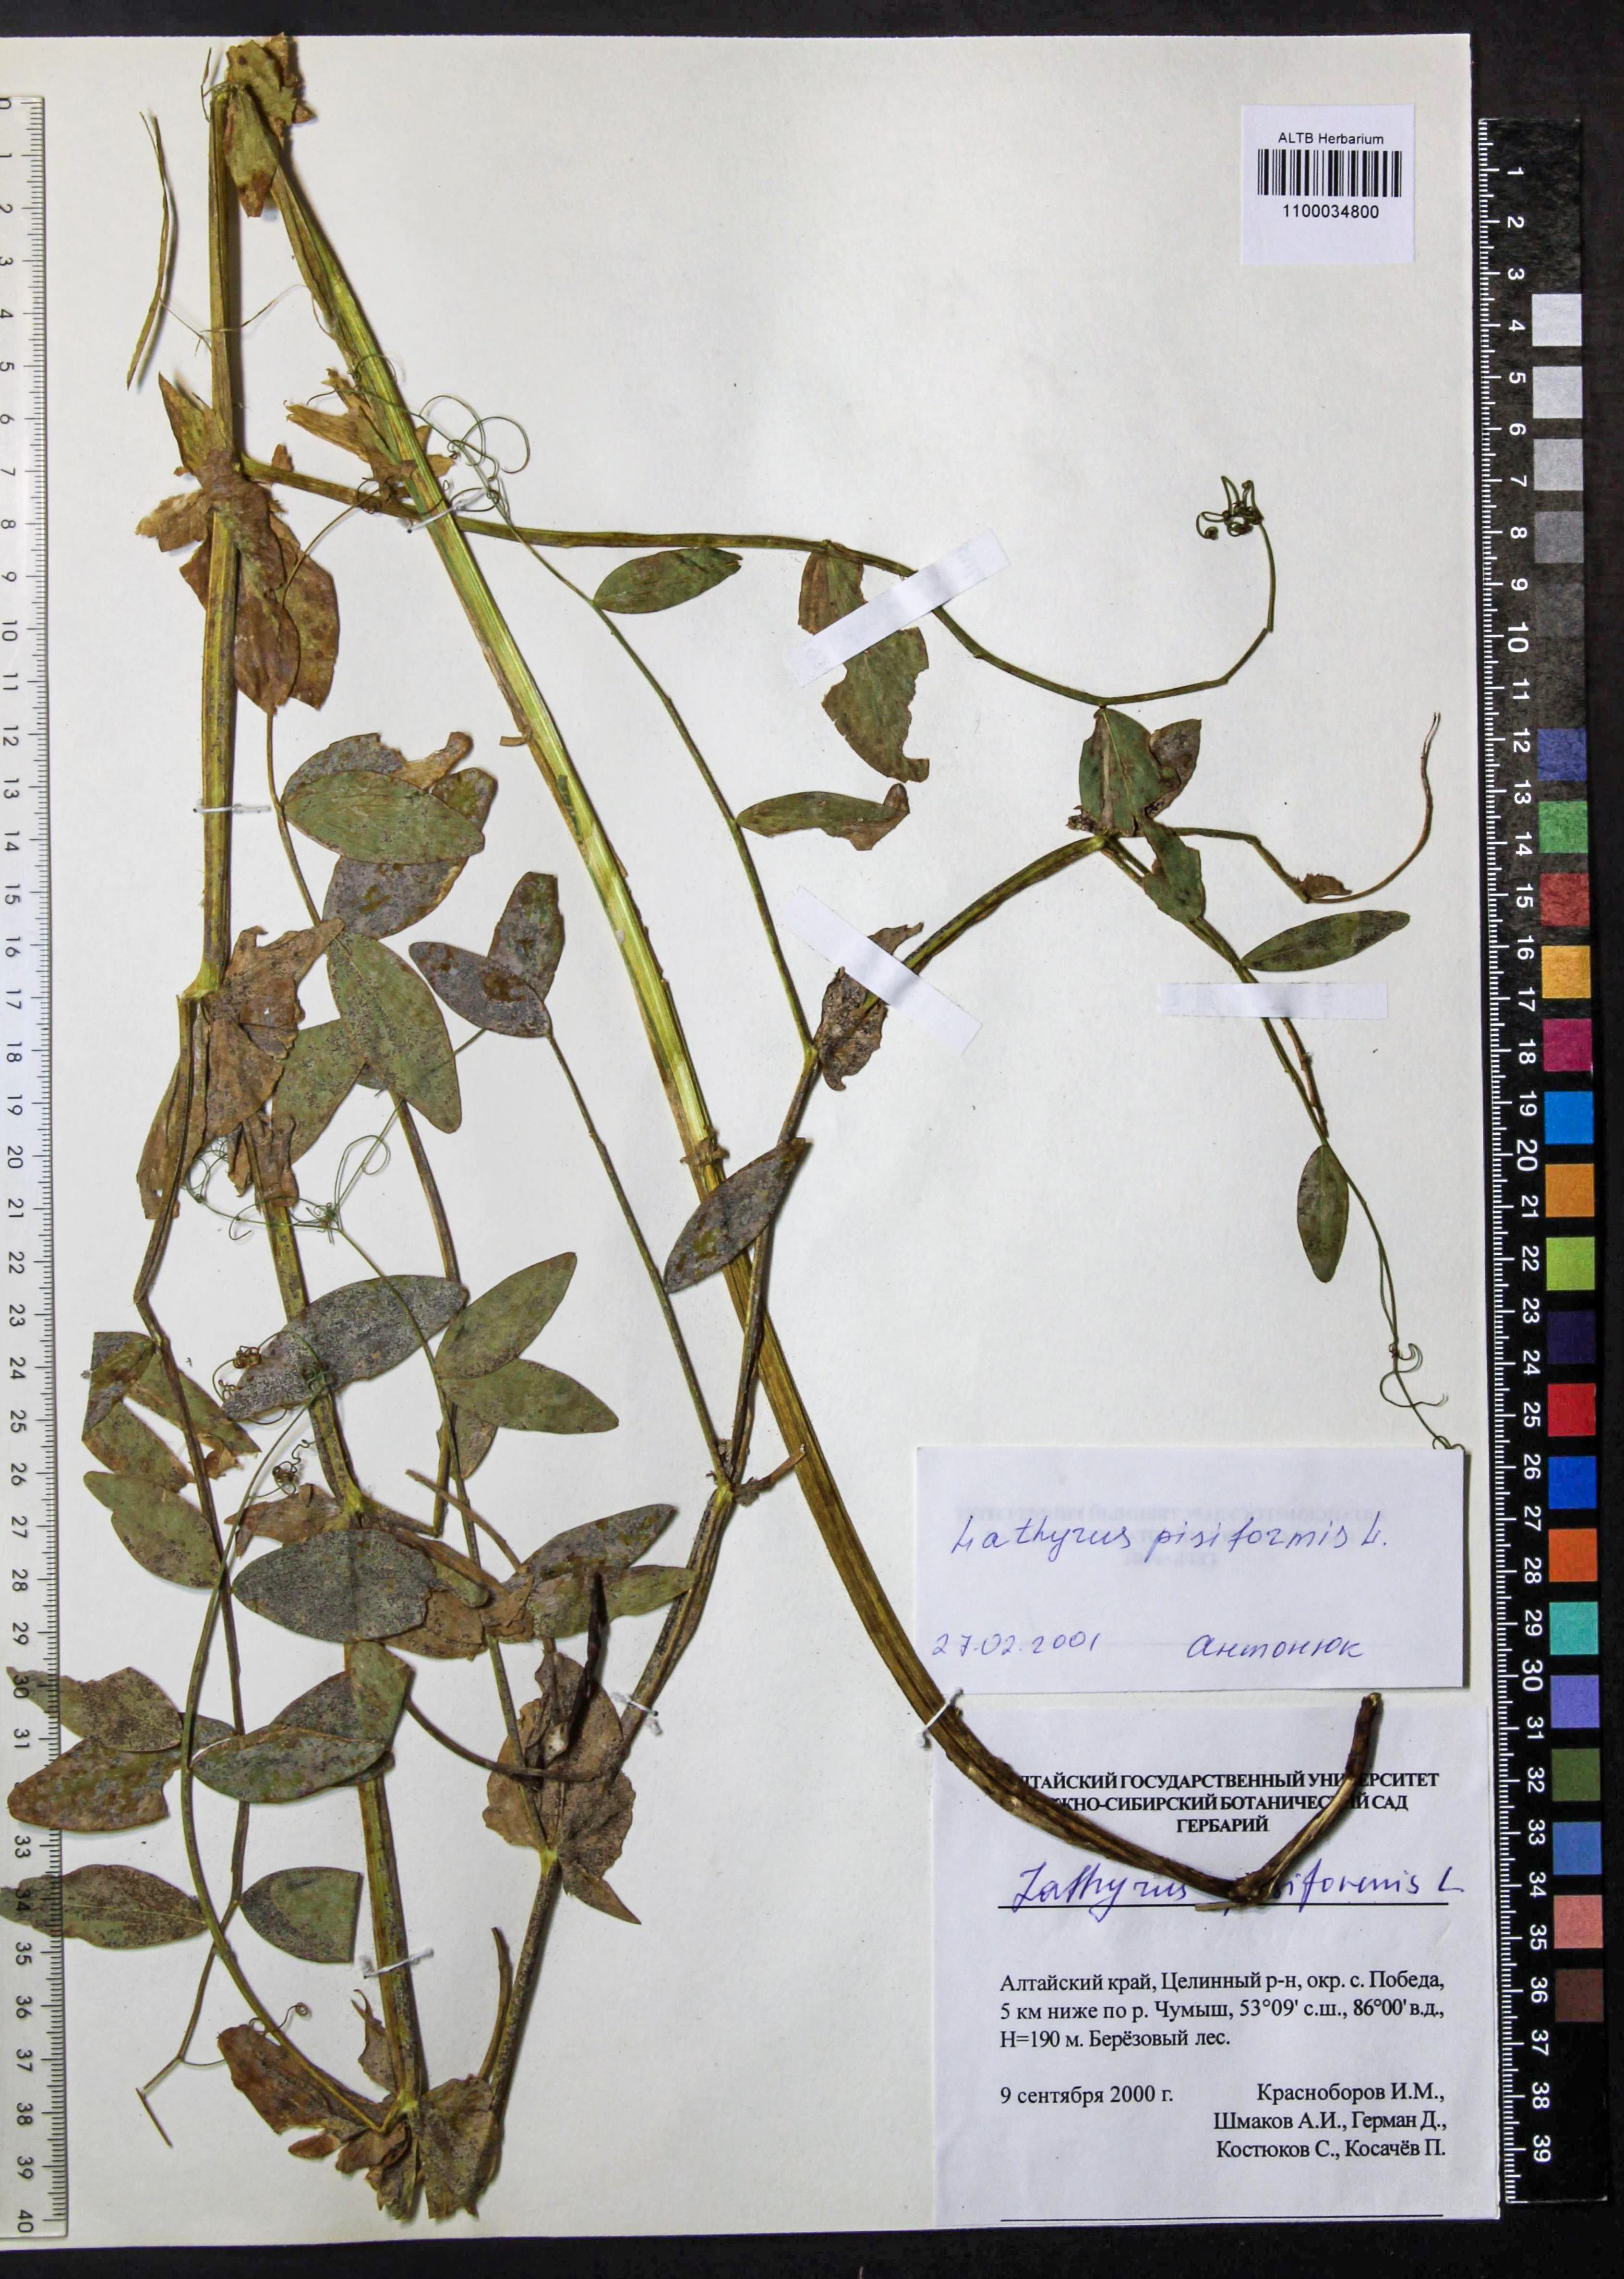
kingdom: Plantae
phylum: Tracheophyta
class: Magnoliopsida
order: Fabales
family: Fabaceae
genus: Lathyrus
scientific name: Lathyrus pisiformis
